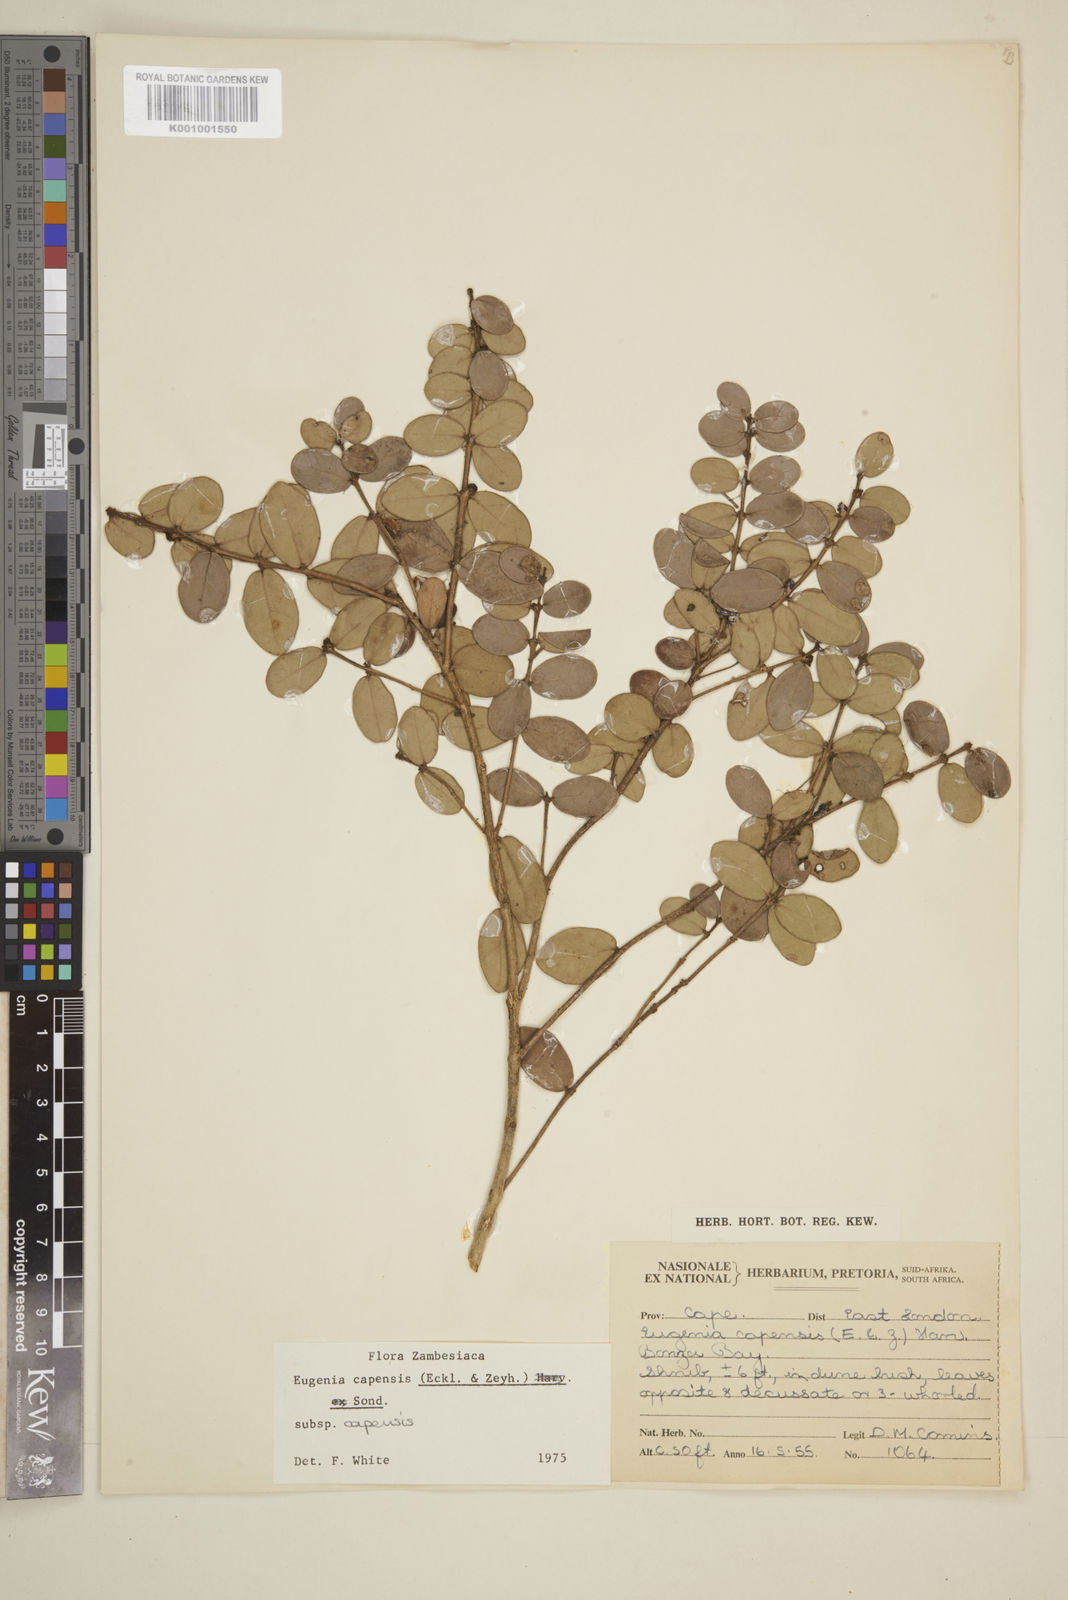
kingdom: Plantae
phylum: Tracheophyta
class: Magnoliopsida
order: Myrtales
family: Myrtaceae
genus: Eugenia
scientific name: Eugenia capensis
